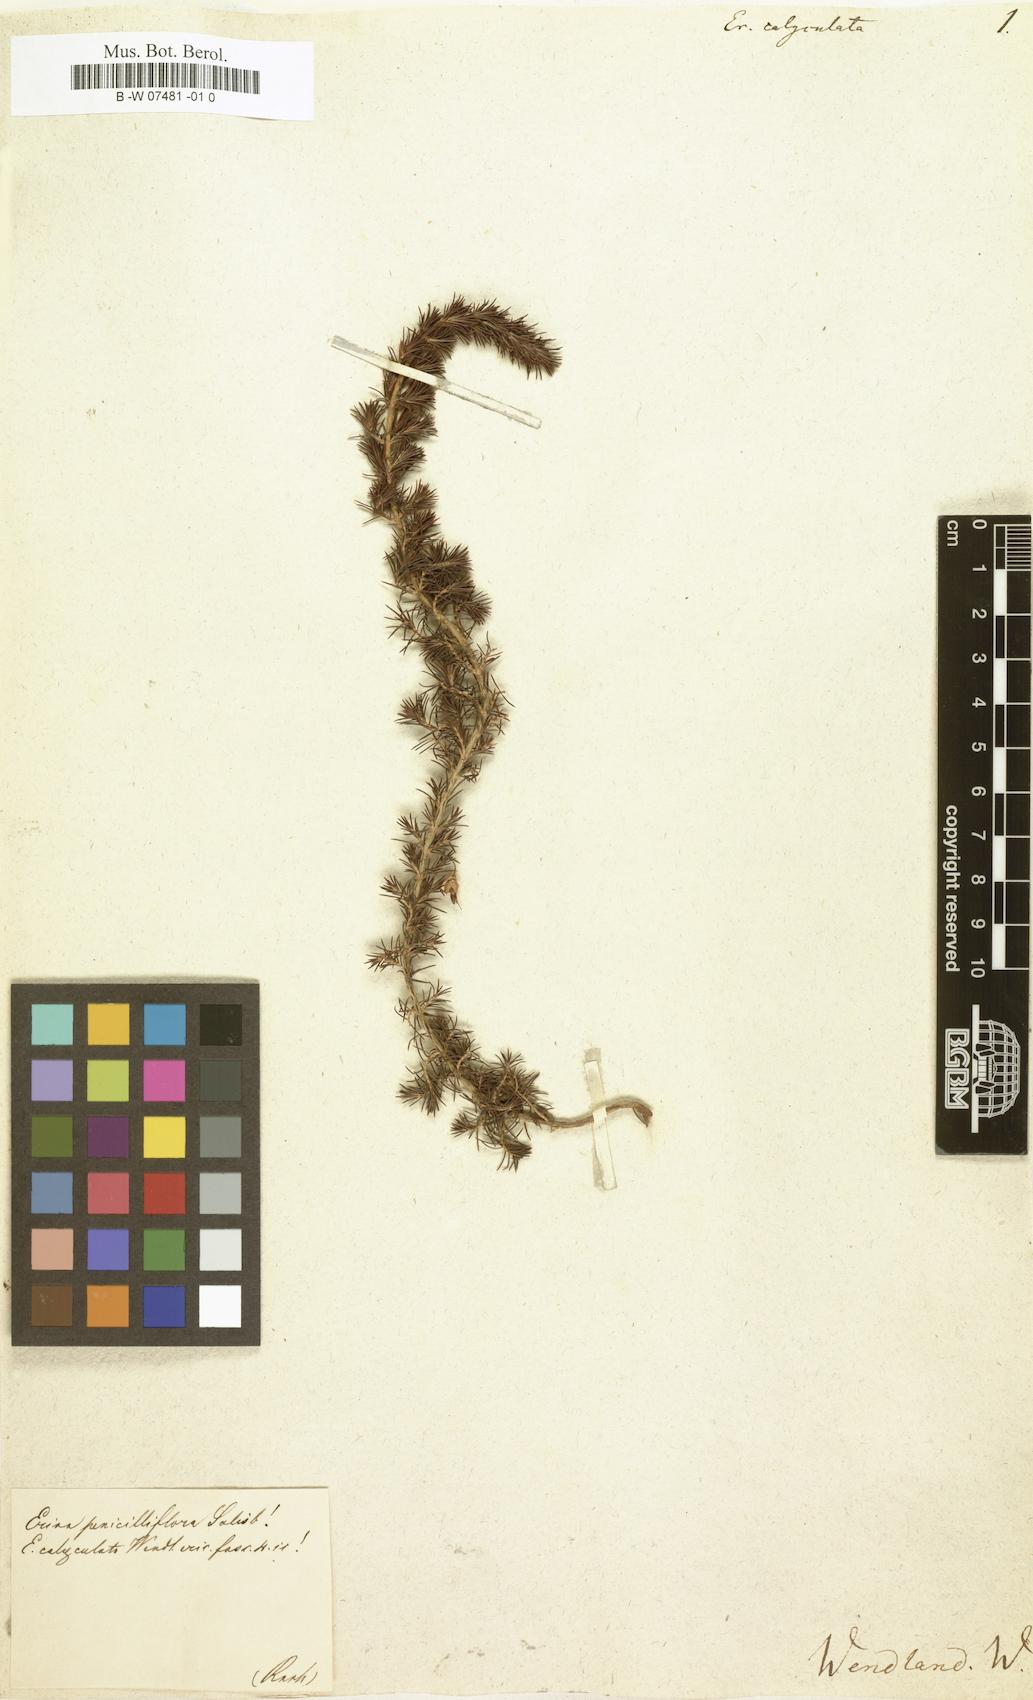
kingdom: Plantae
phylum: Tracheophyta
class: Magnoliopsida
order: Ericales
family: Ericaceae
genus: Erica
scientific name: Erica penicilliformis
